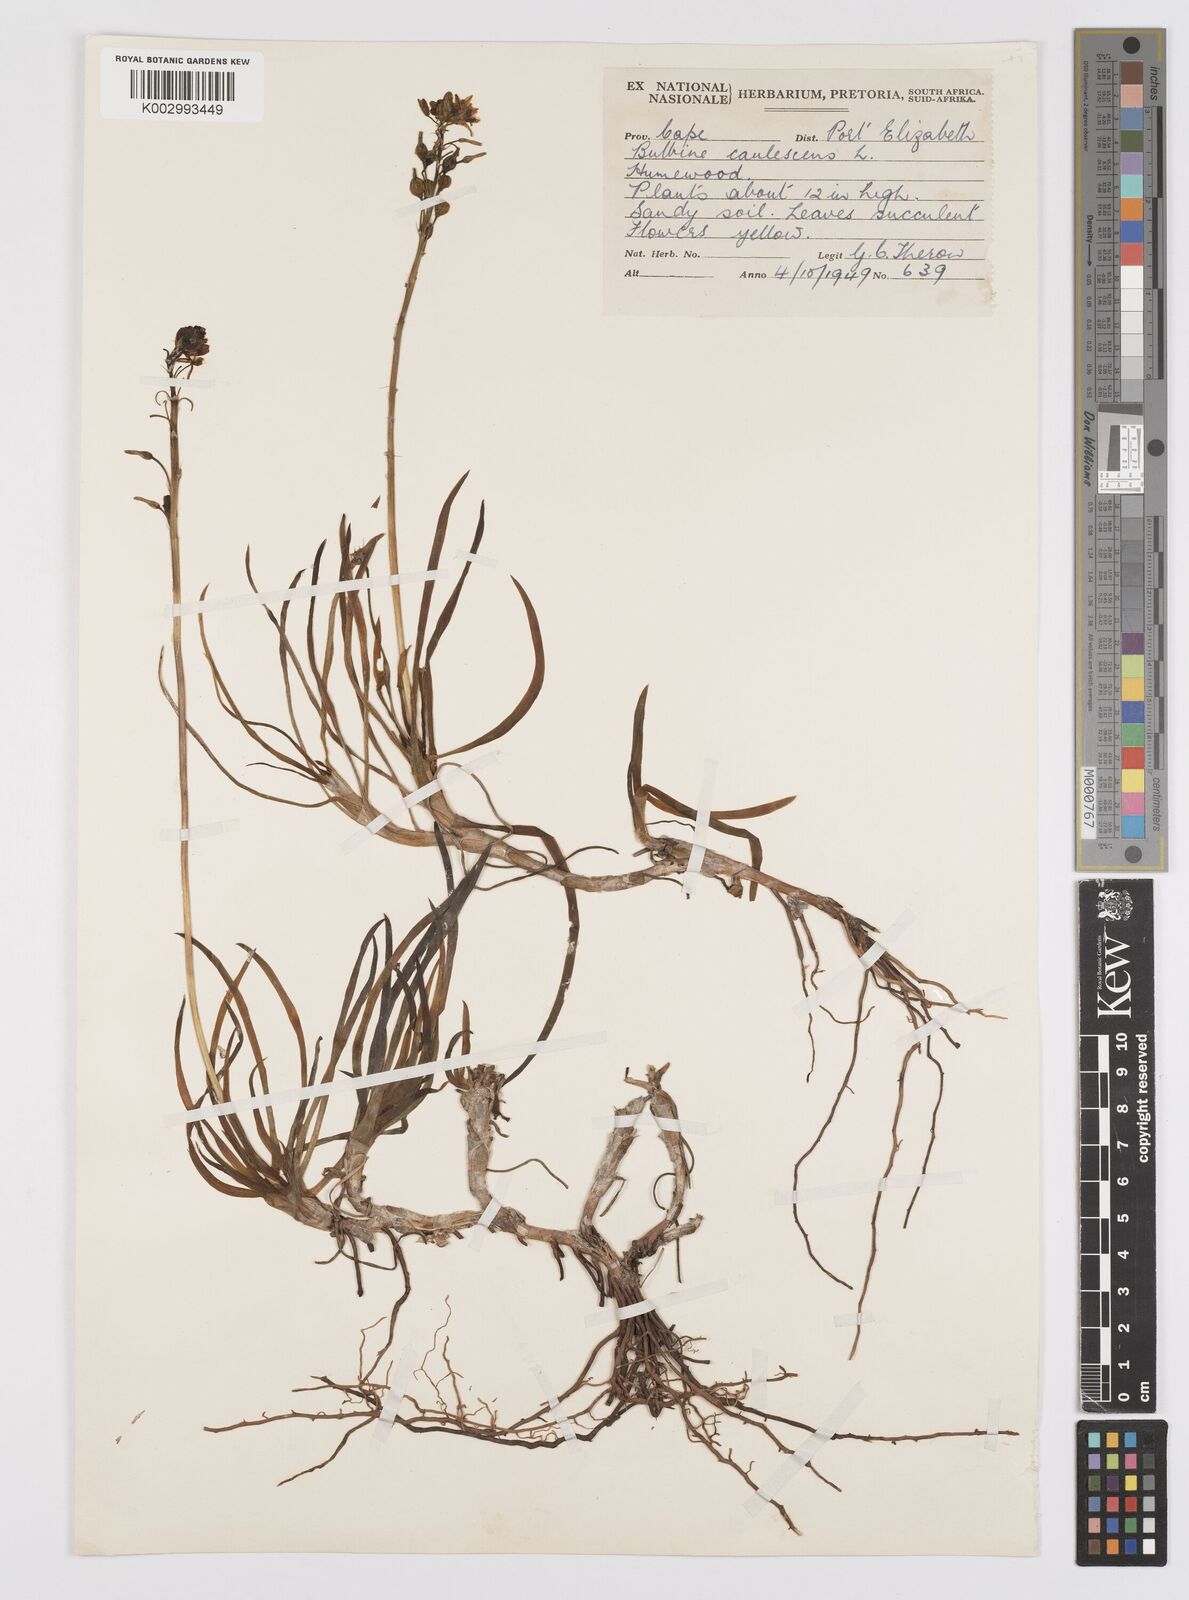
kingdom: Plantae
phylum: Tracheophyta
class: Liliopsida
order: Asparagales
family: Asphodelaceae
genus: Bulbine
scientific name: Bulbine frutescens
